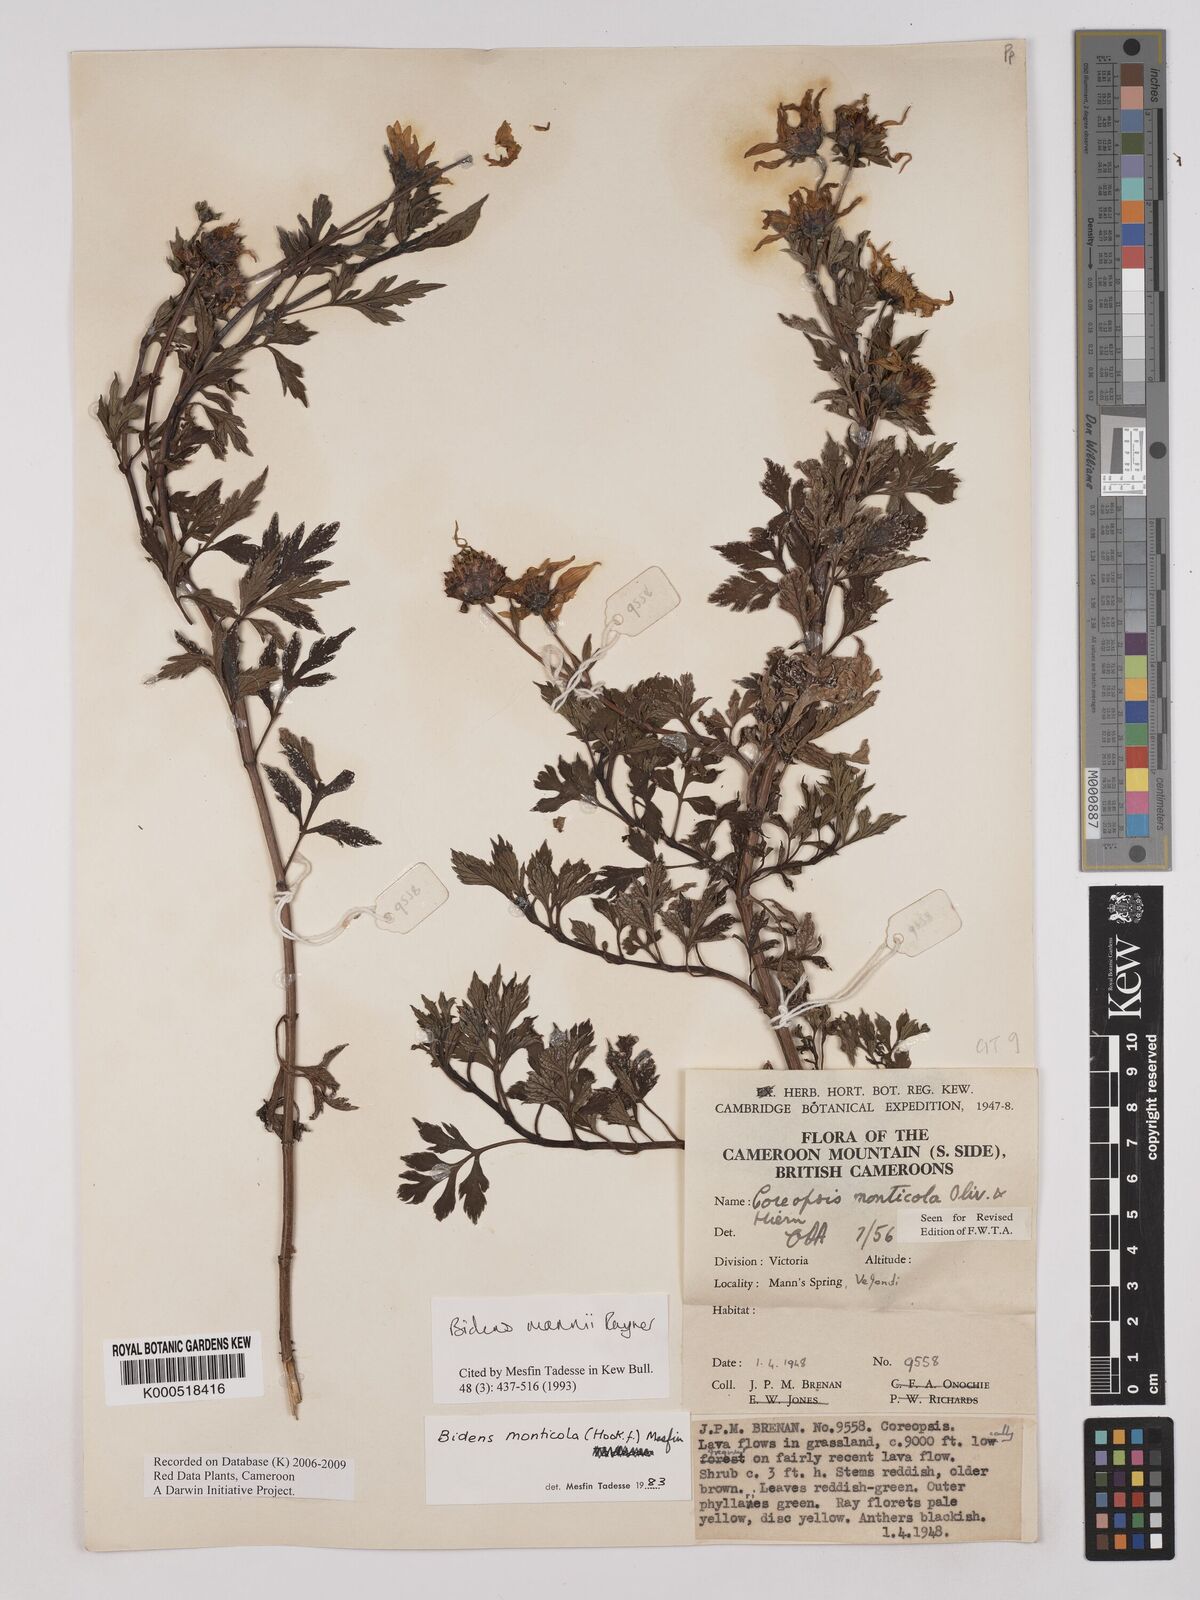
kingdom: Plantae
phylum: Tracheophyta
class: Magnoliopsida
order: Asterales
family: Asteraceae
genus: Bidens
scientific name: Bidens mannii
